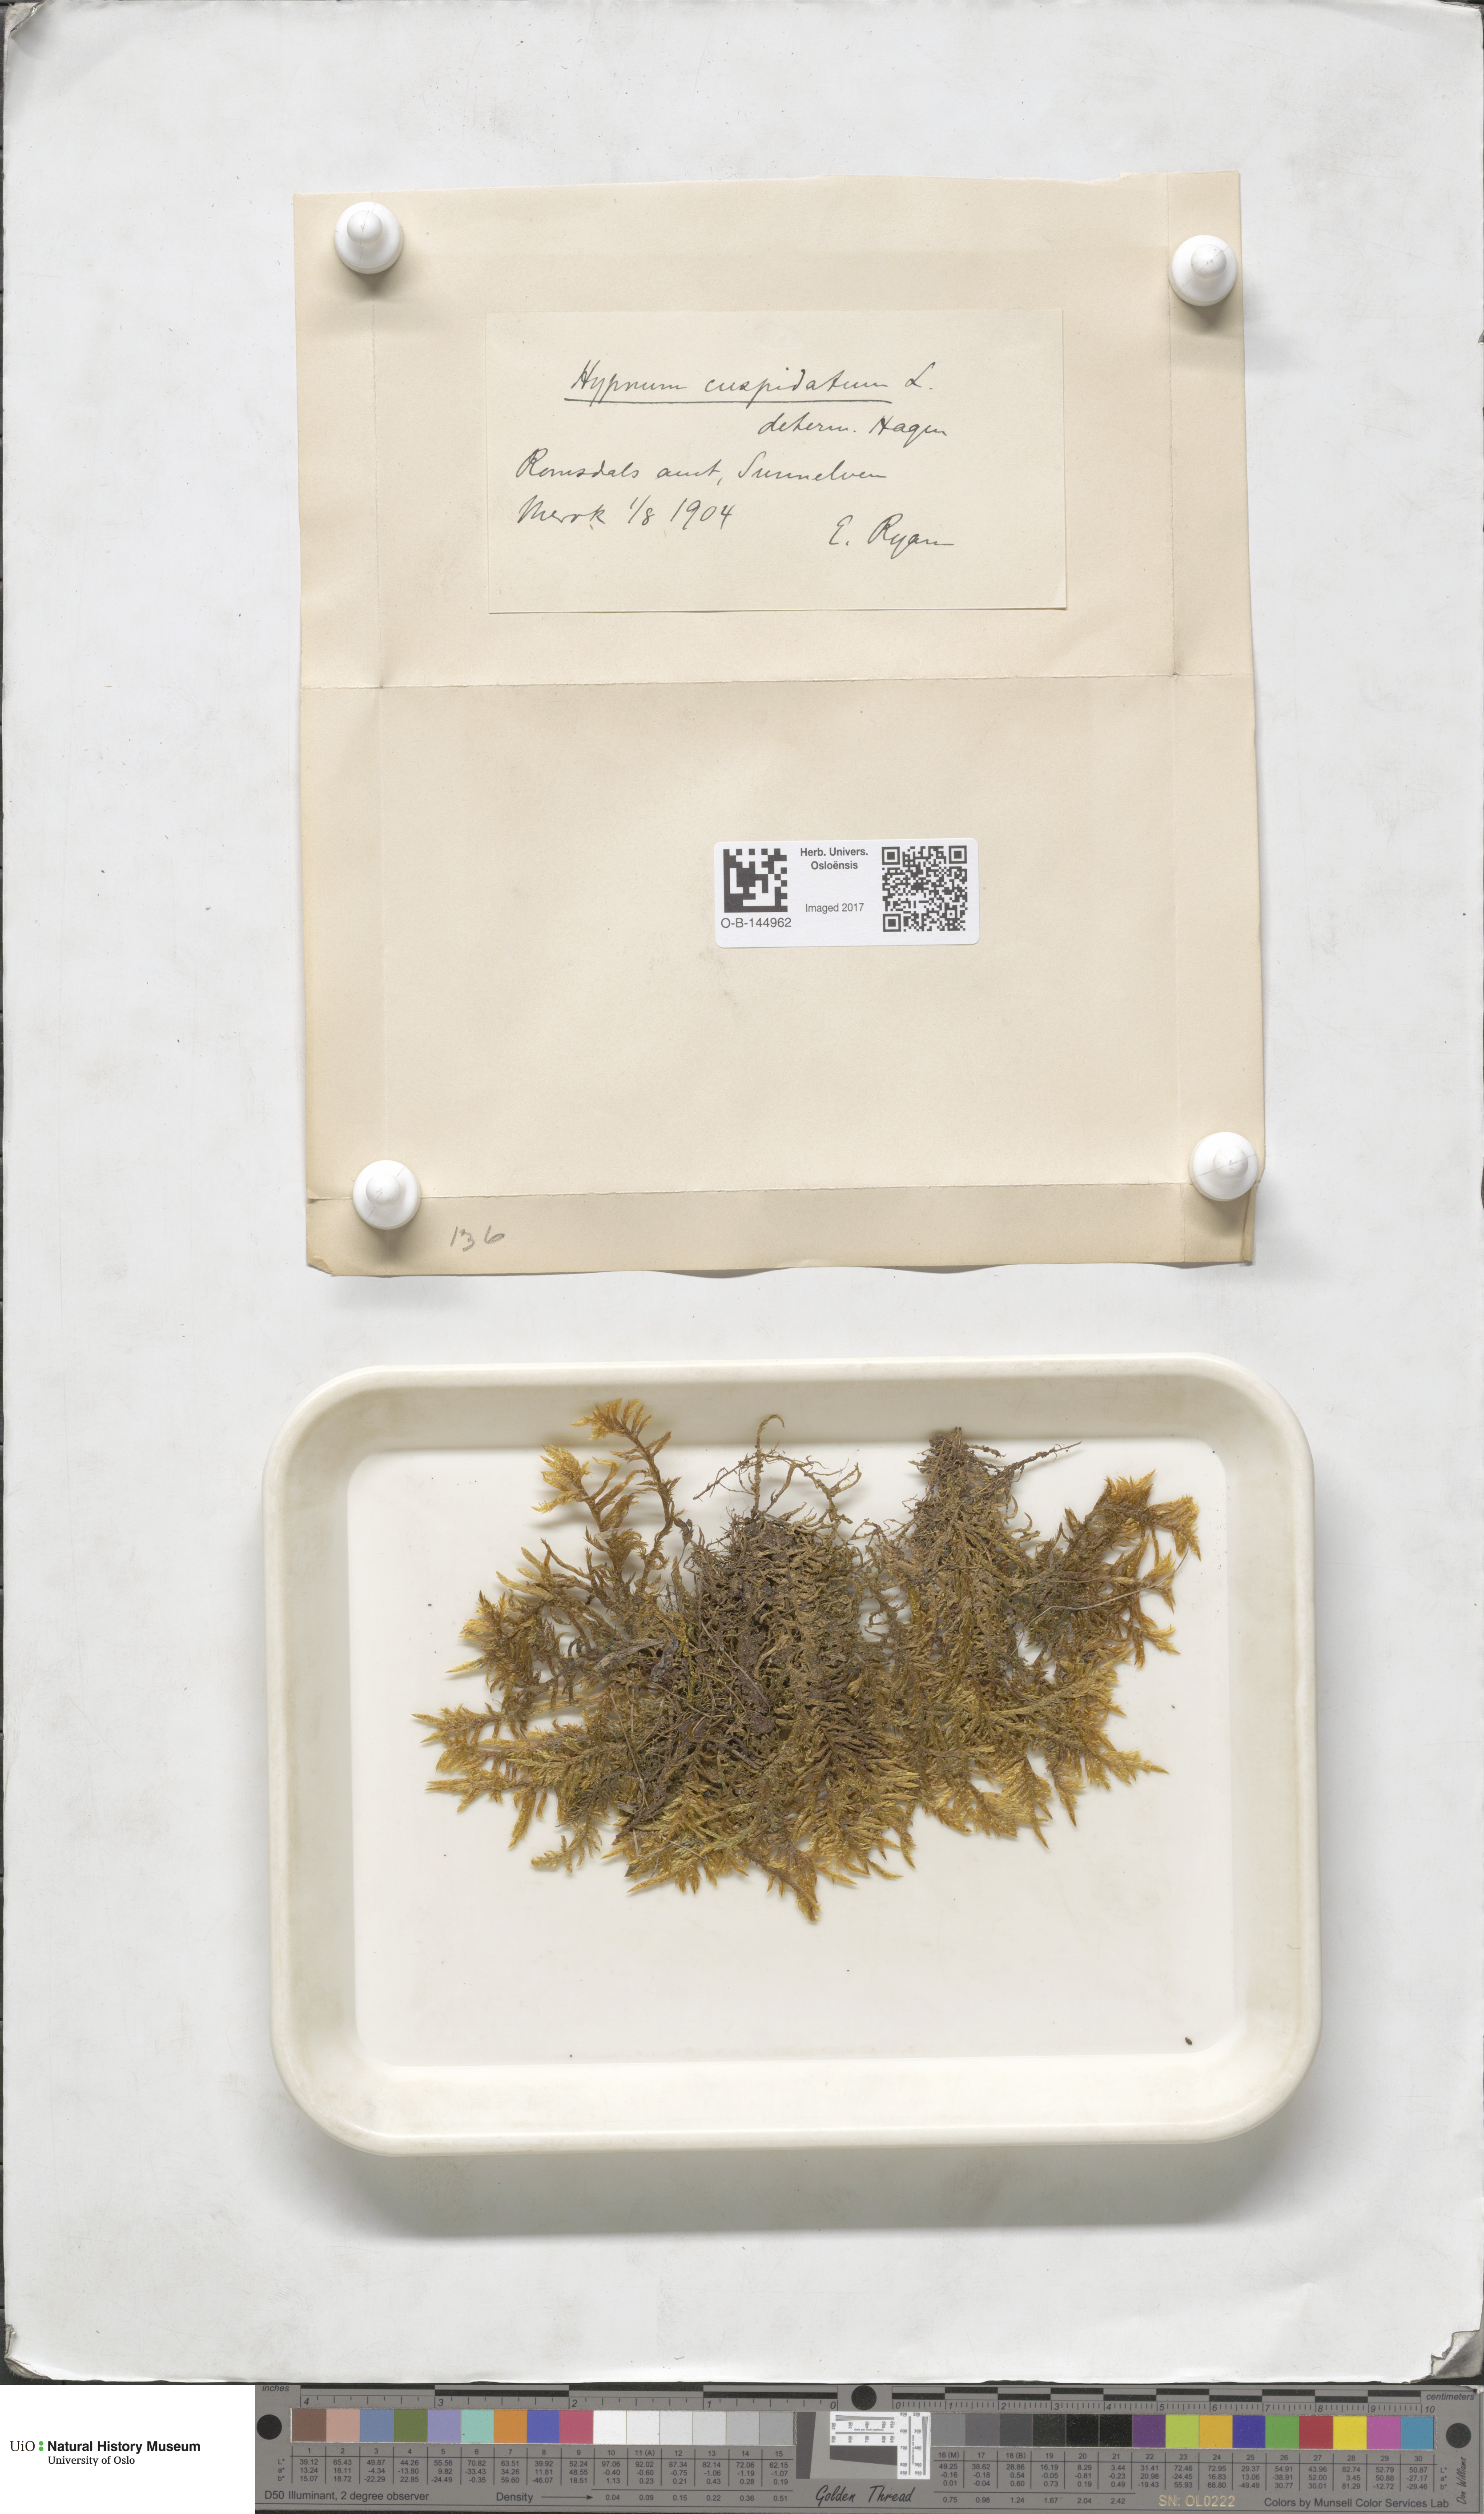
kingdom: Plantae
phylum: Bryophyta
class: Bryopsida
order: Hypnales
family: Pylaisiaceae
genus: Calliergonella
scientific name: Calliergonella cuspidata
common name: Common large wetland moss
